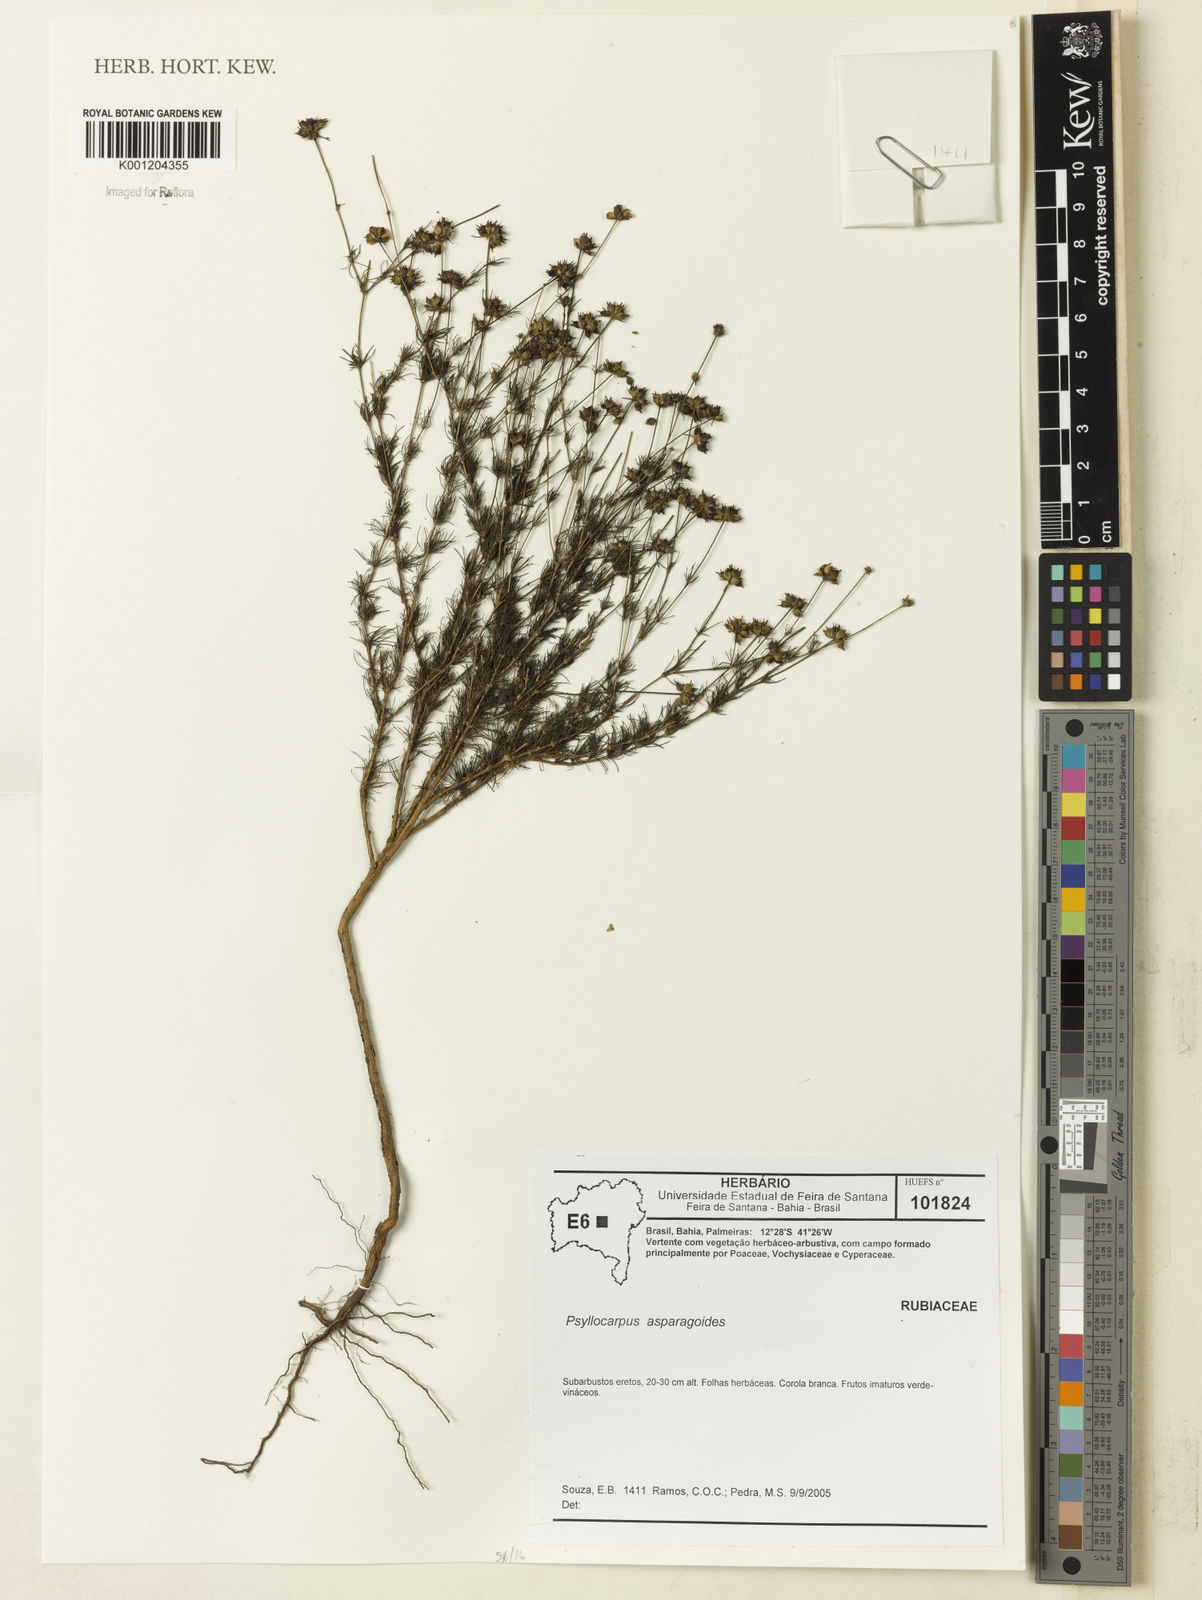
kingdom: Plantae
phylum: Tracheophyta
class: Magnoliopsida
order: Gentianales
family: Rubiaceae
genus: Psyllocarpus
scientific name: Psyllocarpus asparagoides
